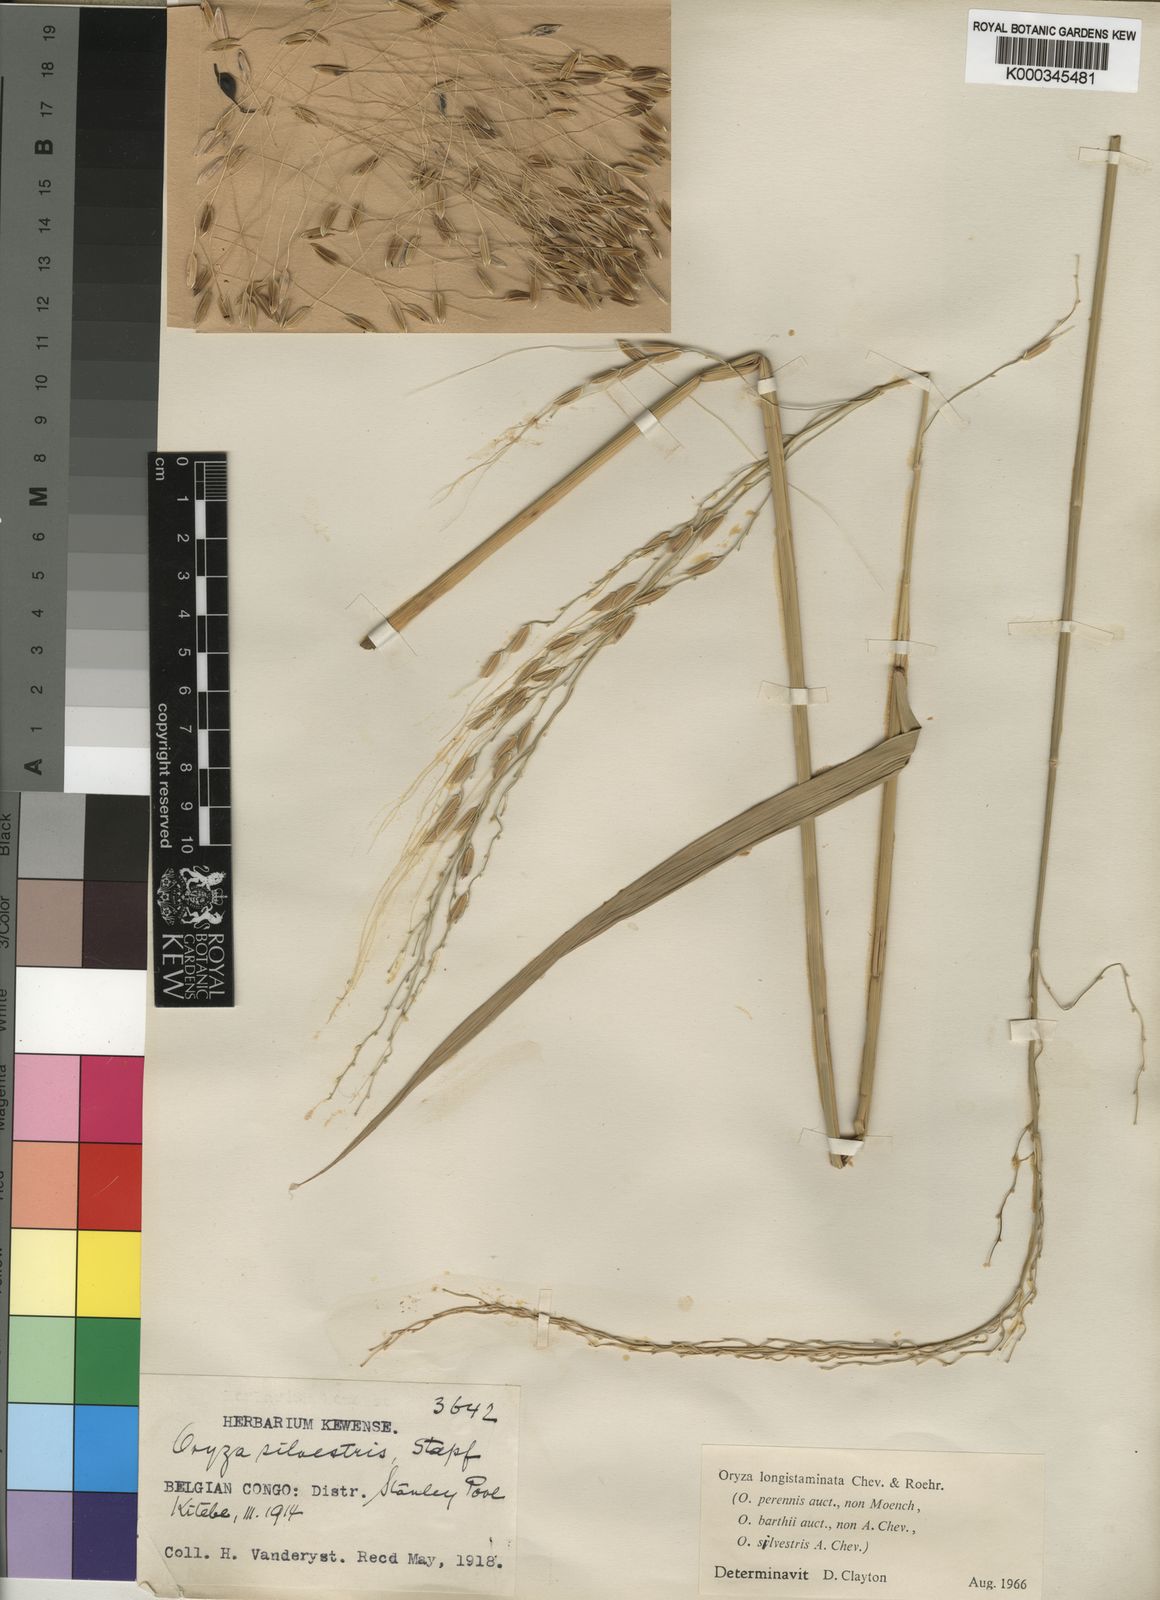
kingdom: Plantae
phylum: Tracheophyta
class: Liliopsida
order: Poales
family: Poaceae
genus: Oryza
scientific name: Oryza longistaminata
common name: Red rice
